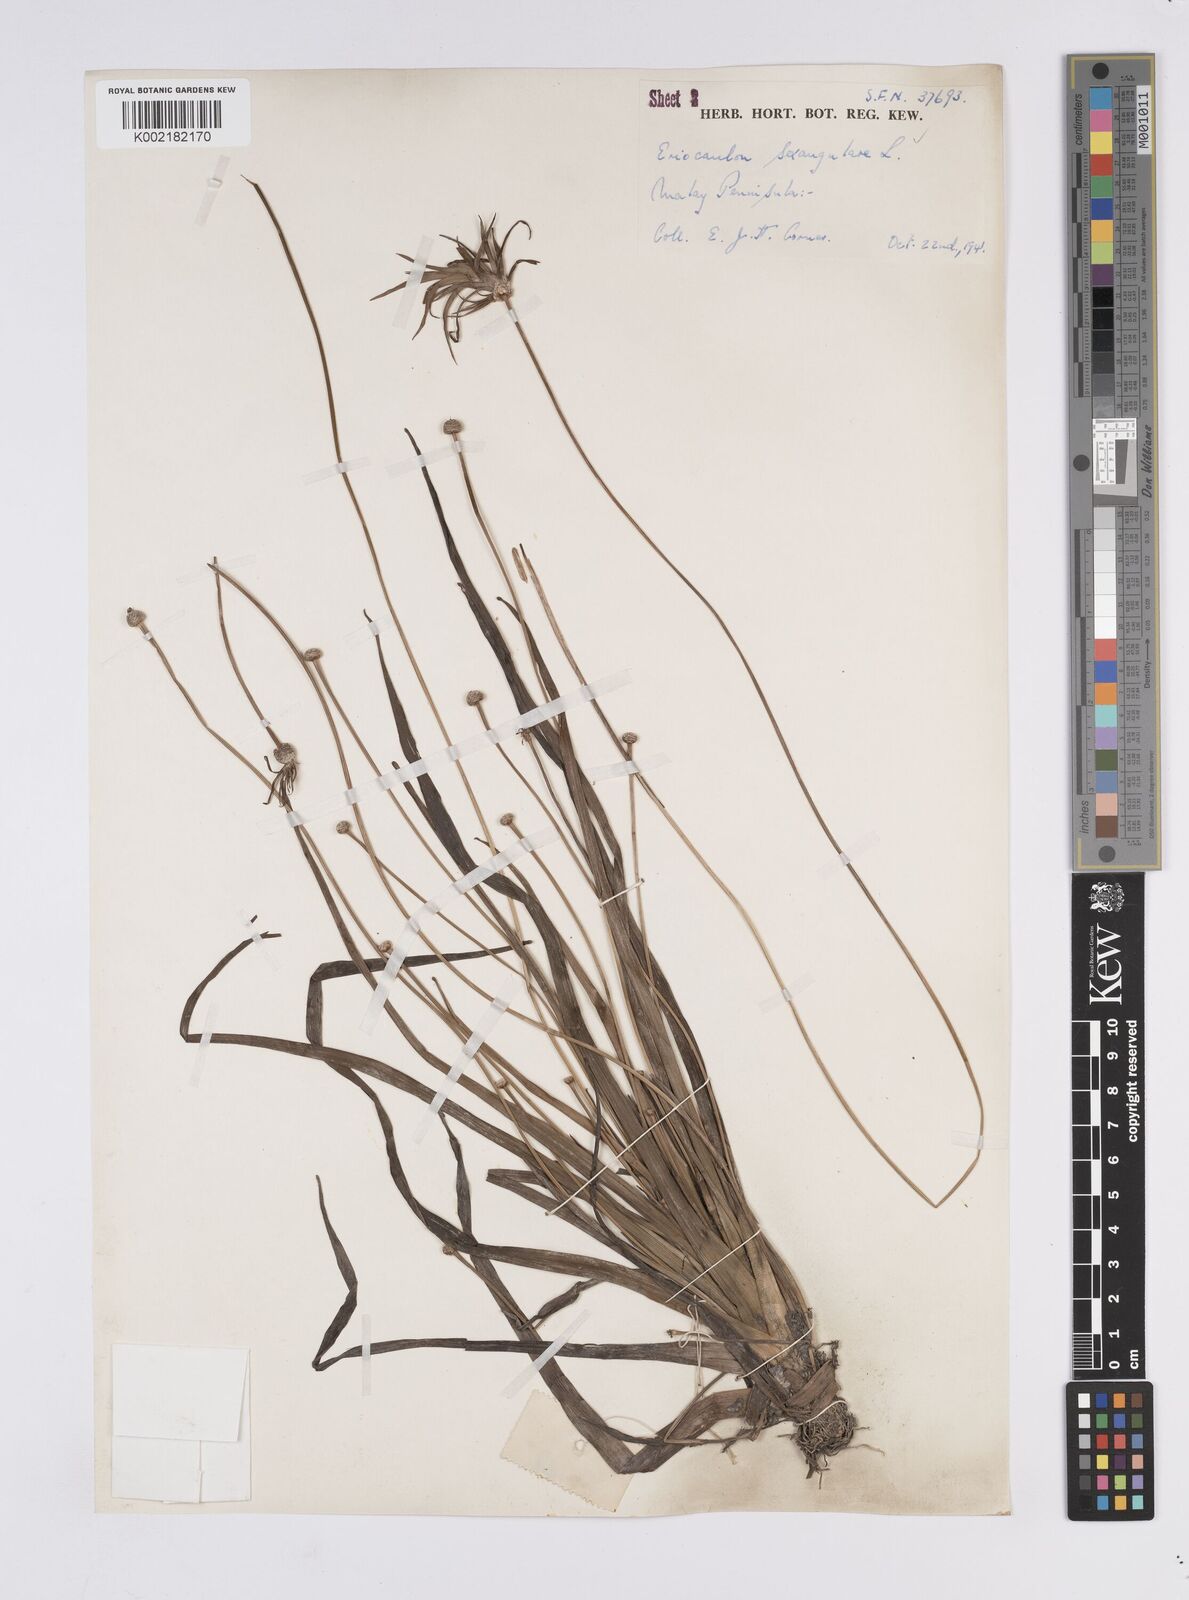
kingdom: Plantae
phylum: Tracheophyta
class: Liliopsida
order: Poales
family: Eriocaulaceae
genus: Eriocaulon
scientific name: Eriocaulon sexangulare
